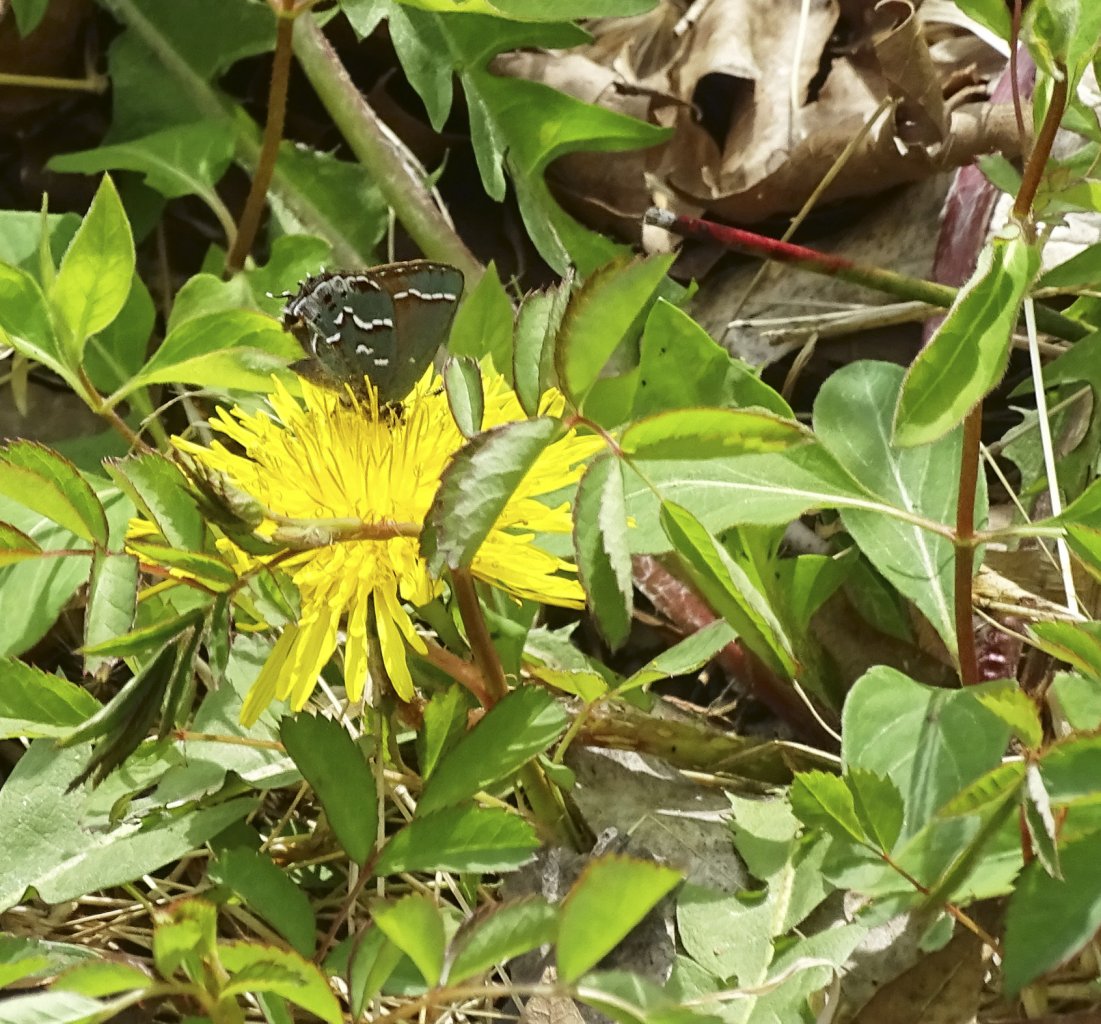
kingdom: Animalia
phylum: Arthropoda
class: Insecta
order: Lepidoptera
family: Lycaenidae
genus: Mitoura
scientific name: Mitoura gryneus
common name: Juniper Hairstreak
